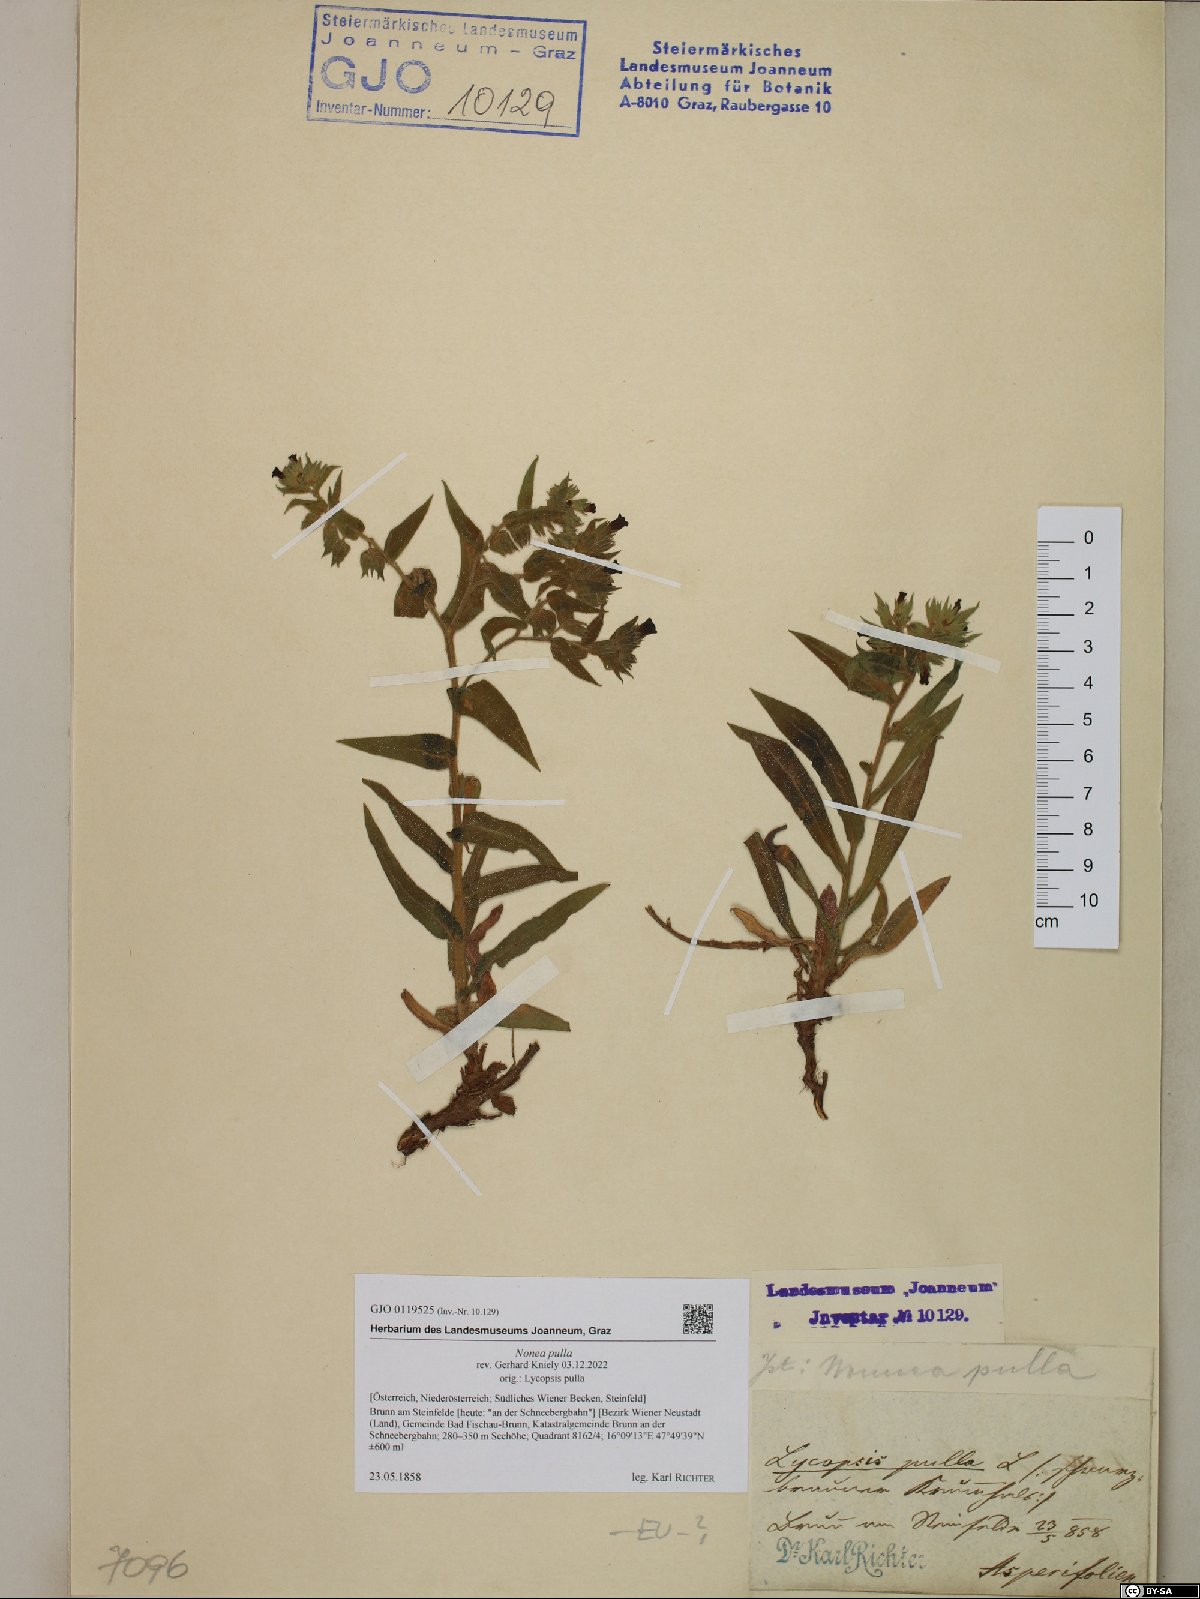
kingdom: Plantae
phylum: Tracheophyta
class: Magnoliopsida
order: Boraginales
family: Boraginaceae
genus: Nonea
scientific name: Nonea pulla
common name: Brown nonea
